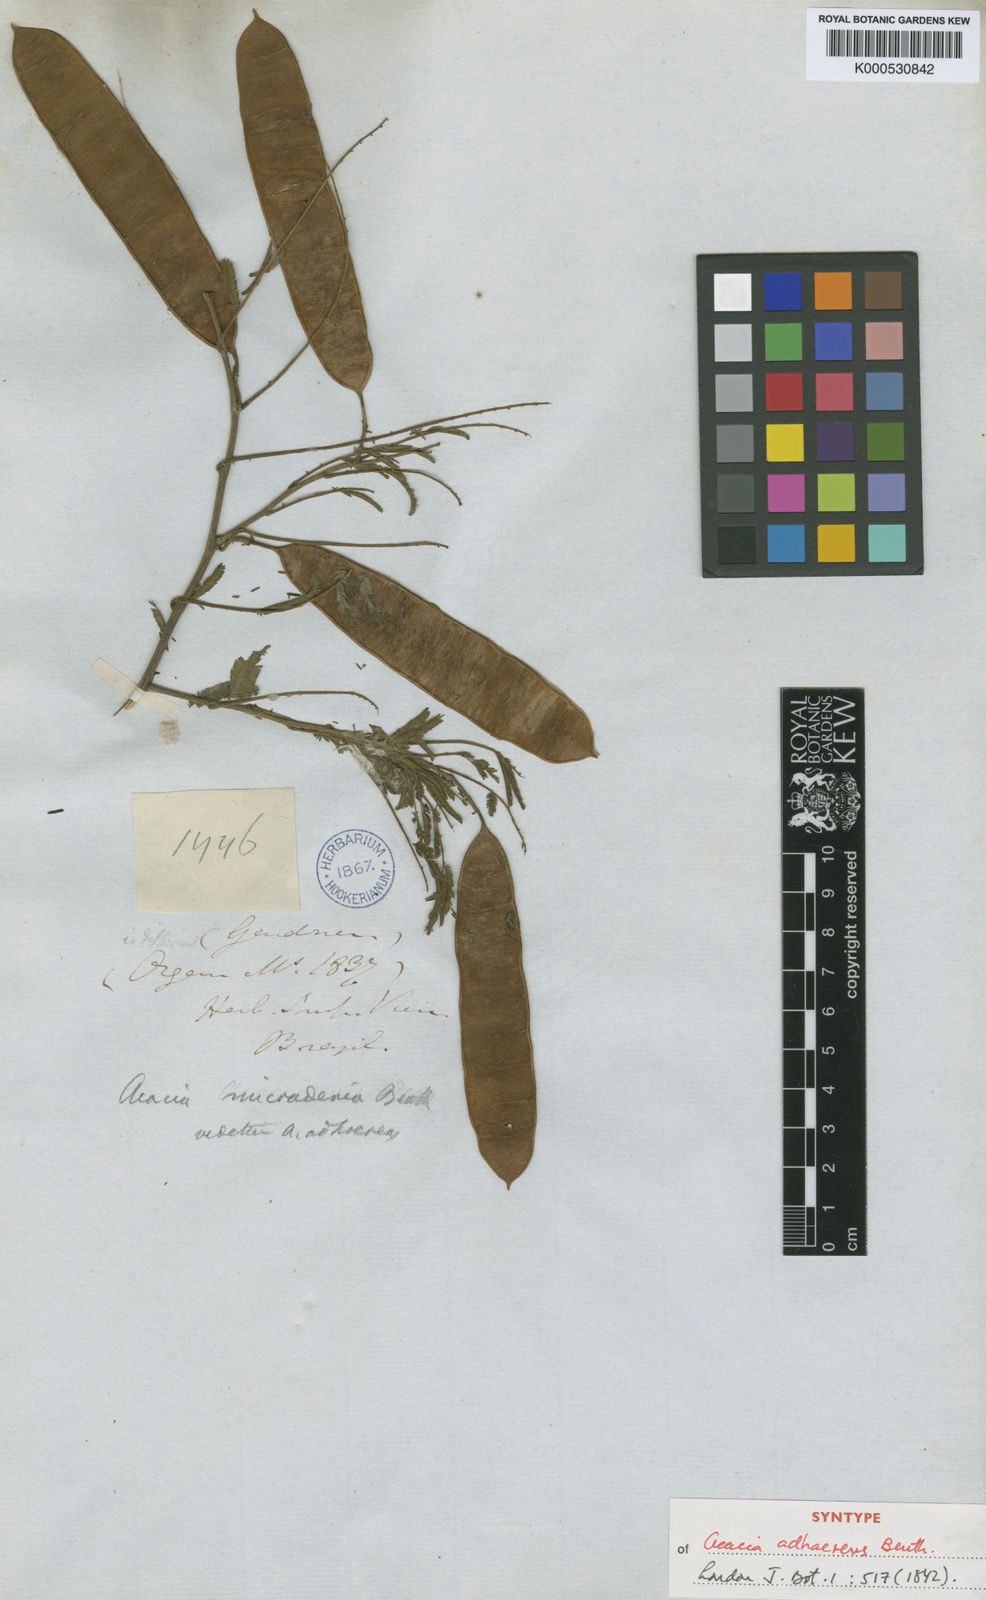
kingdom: Plantae
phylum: Tracheophyta
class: Magnoliopsida
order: Fabales
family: Fabaceae
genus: Senegalia
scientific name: Senegalia martiusiana
